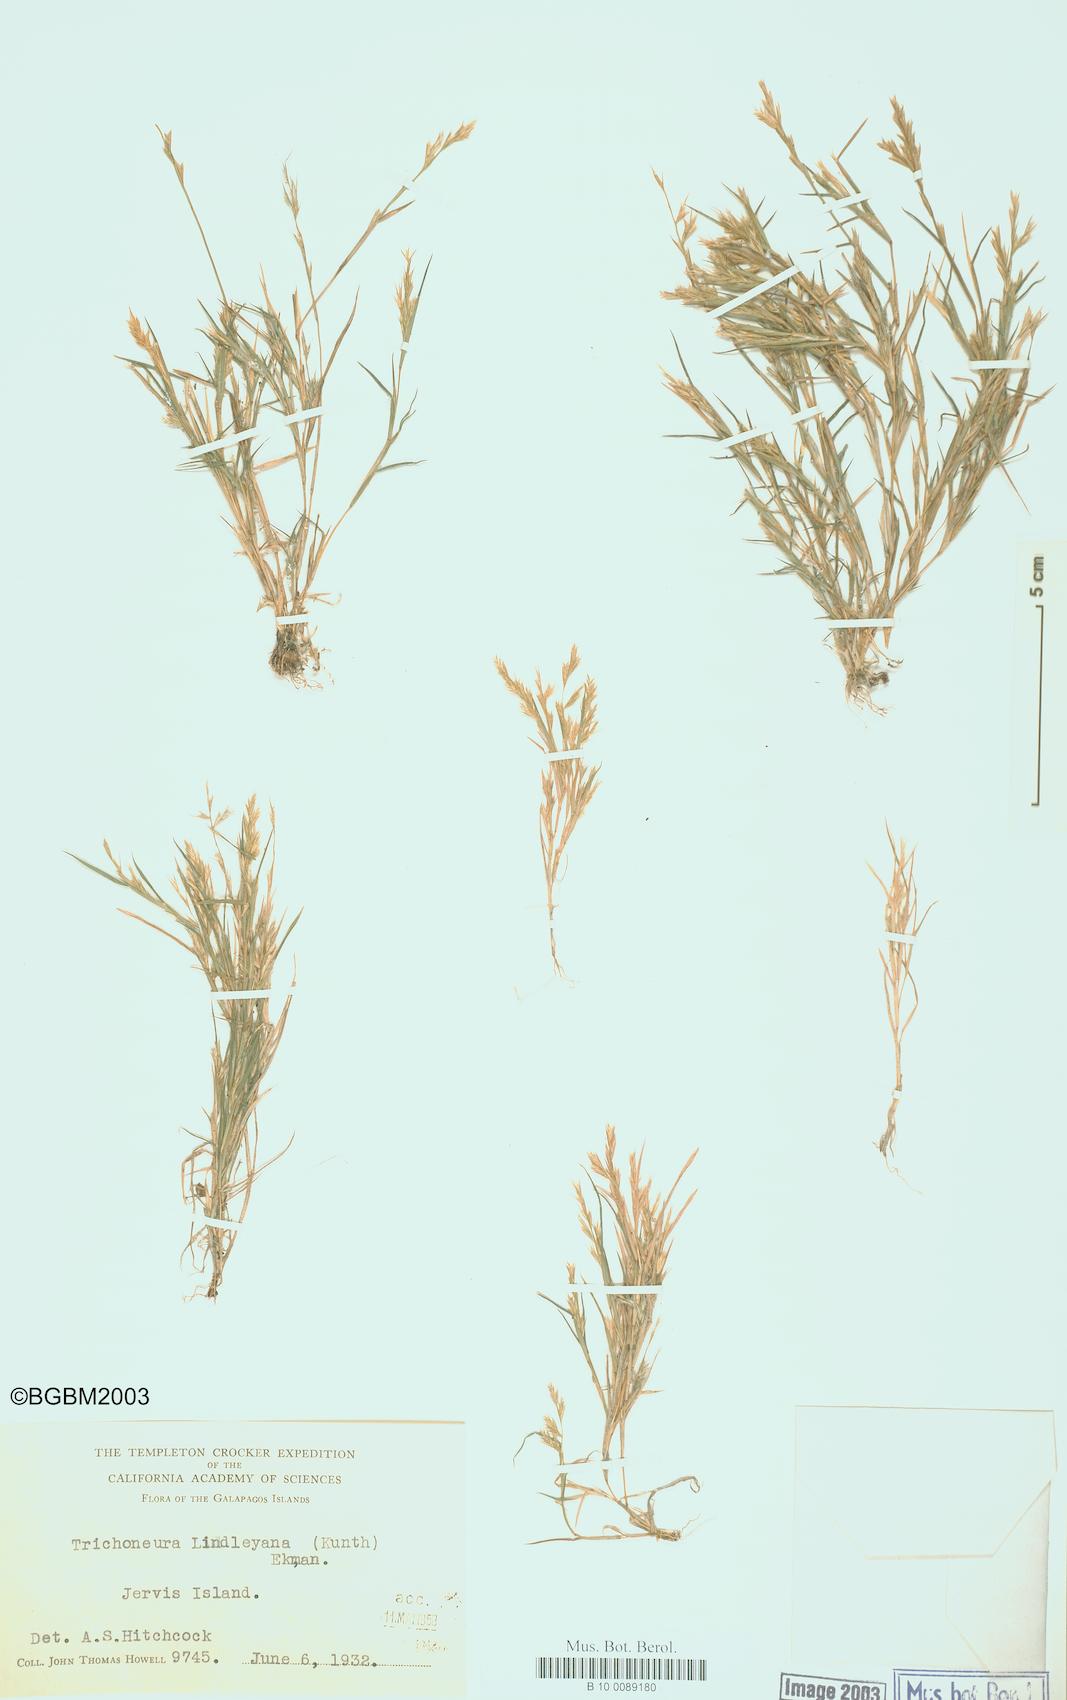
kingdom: Plantae
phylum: Tracheophyta
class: Liliopsida
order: Poales
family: Poaceae
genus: Trichoneura
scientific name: Trichoneura lindleyana
